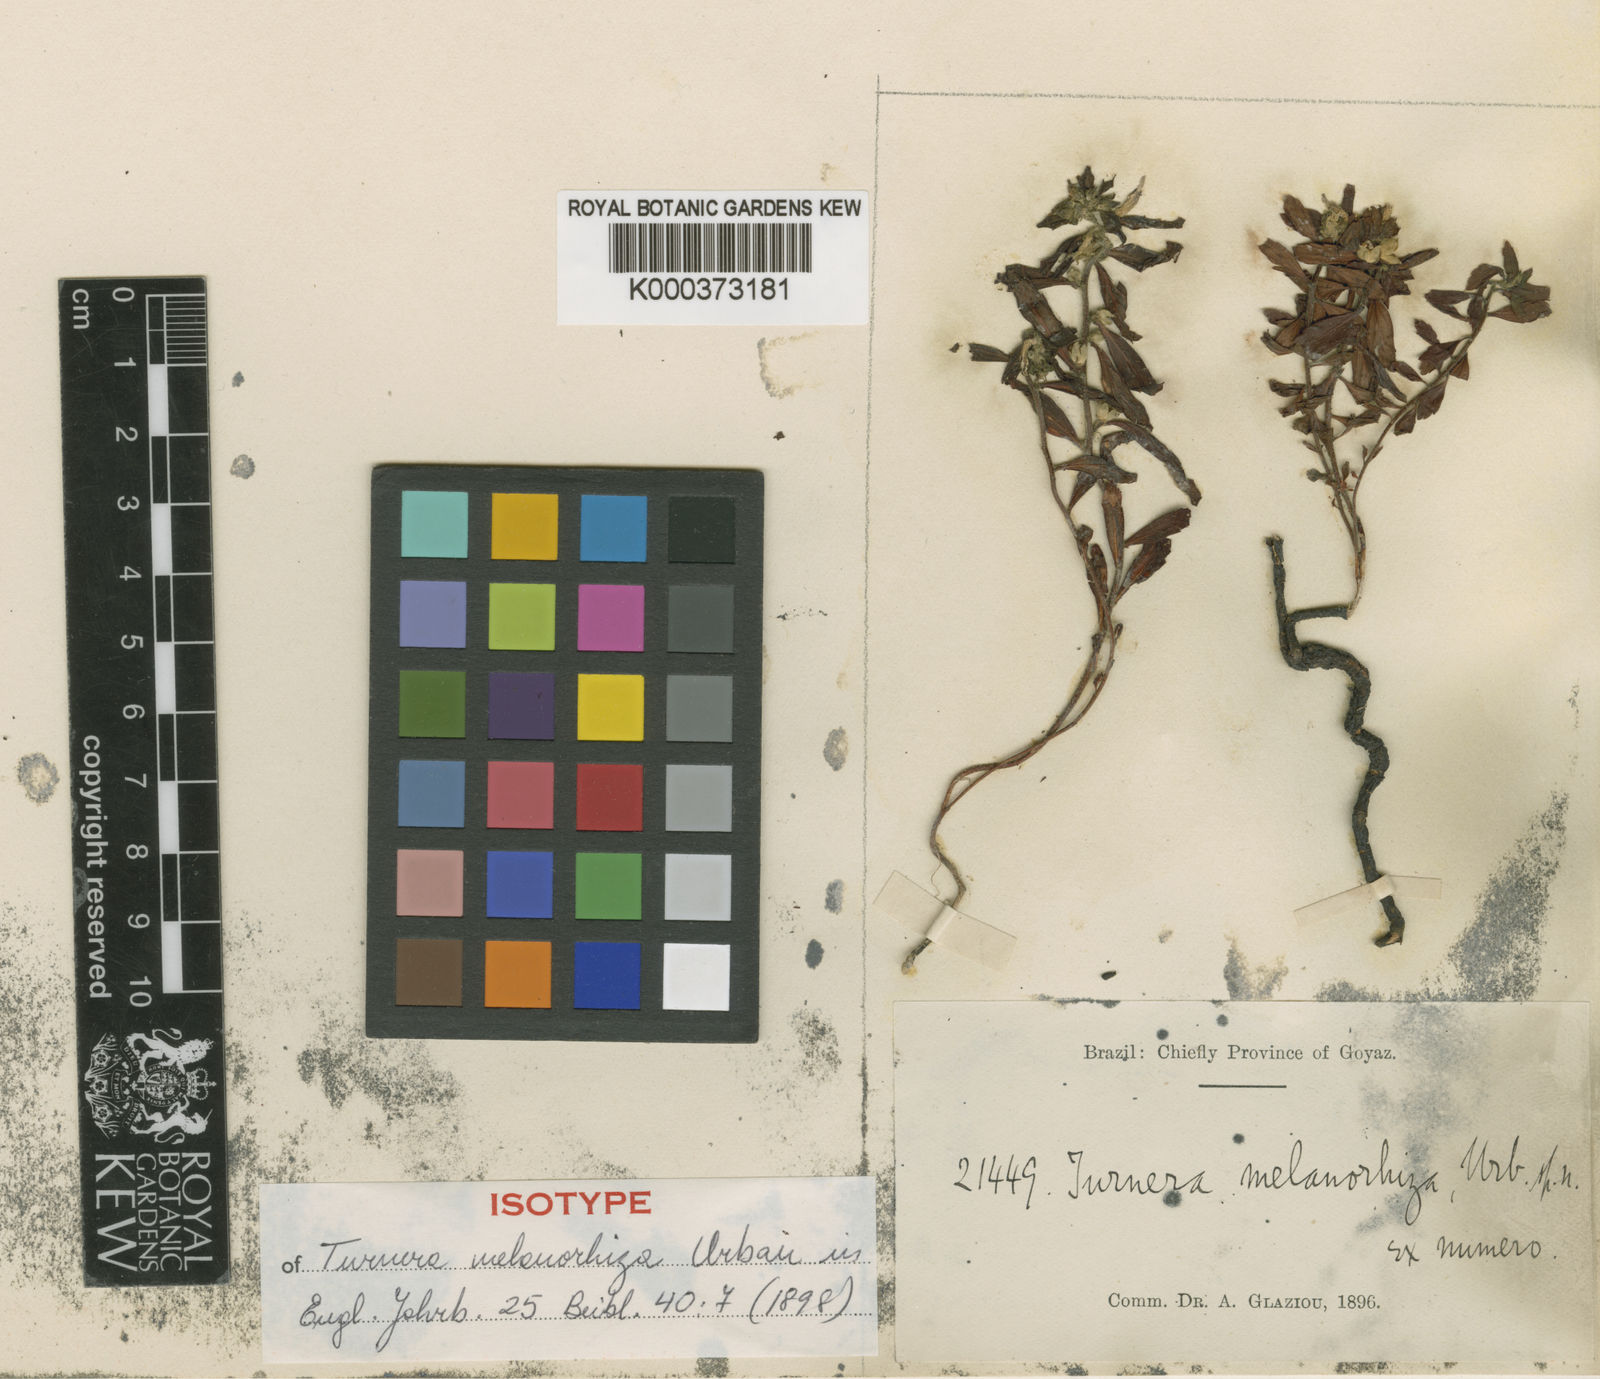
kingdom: Plantae
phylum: Tracheophyta
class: Magnoliopsida
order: Malpighiales
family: Turneraceae
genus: Turnera
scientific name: Turnera melanorhiza
